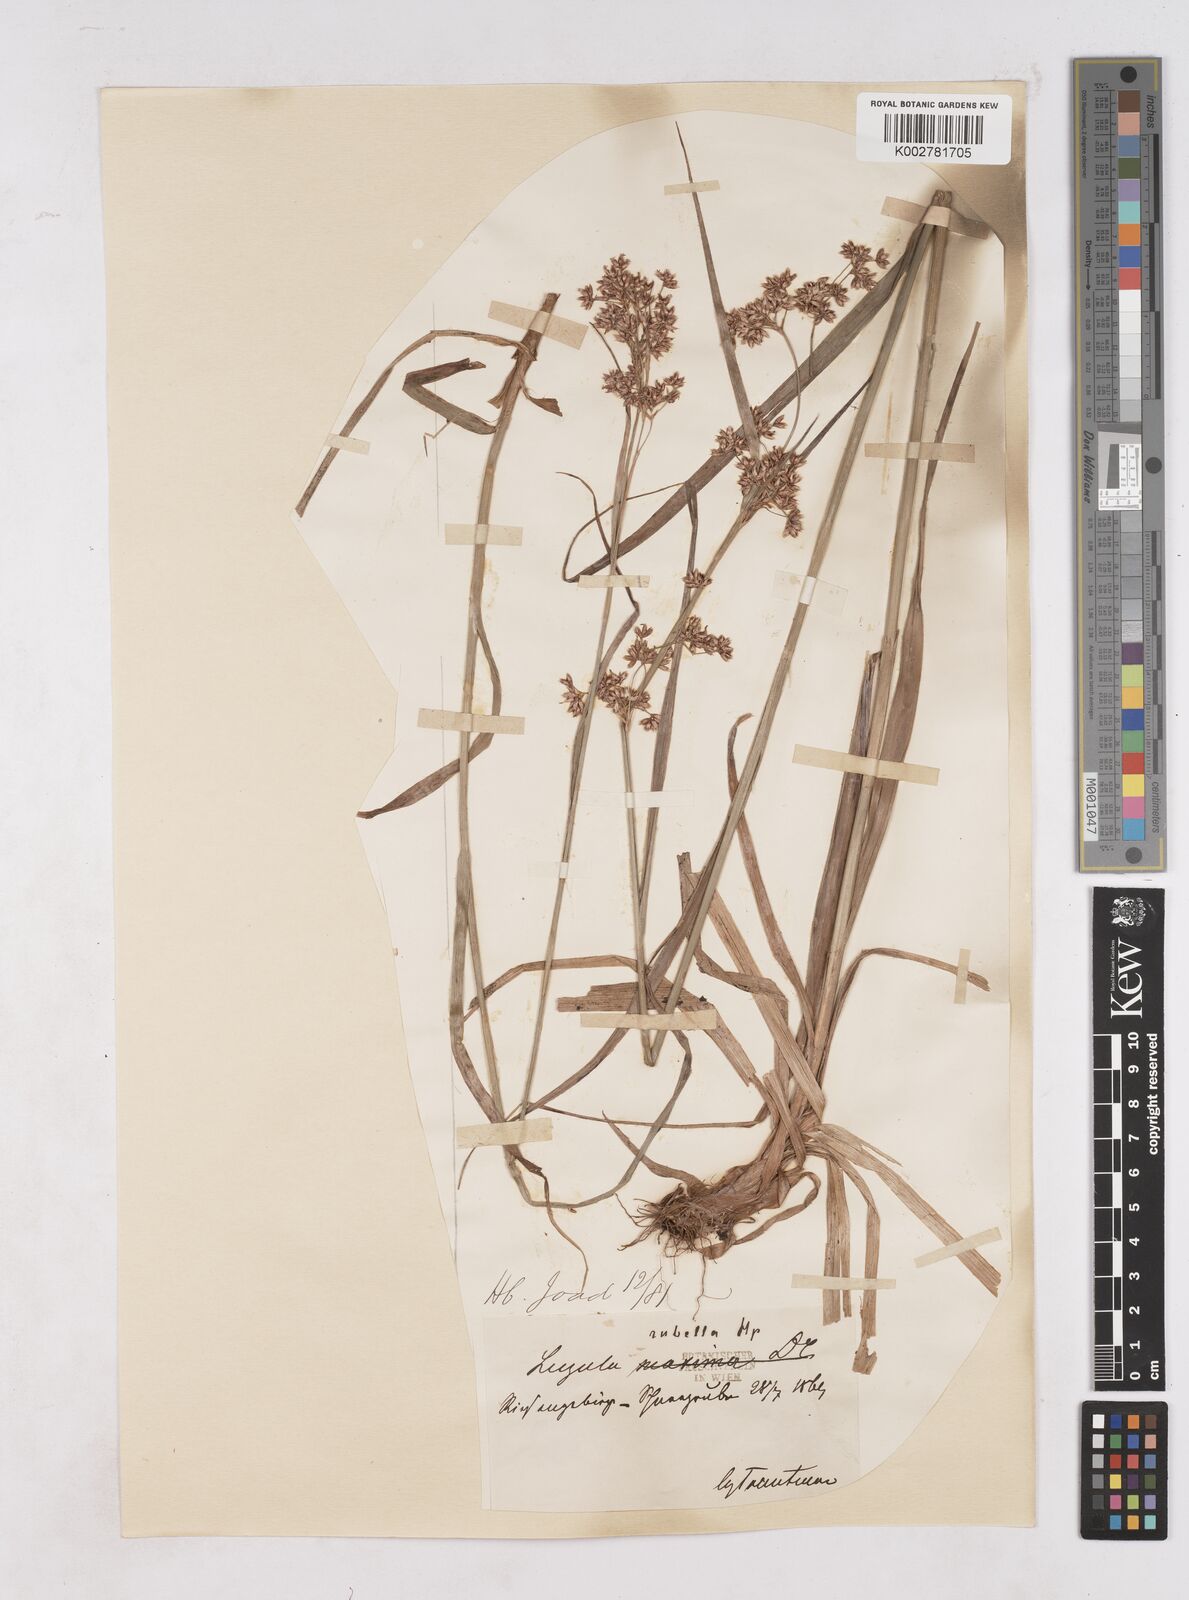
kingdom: Plantae
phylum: Tracheophyta
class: Liliopsida
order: Poales
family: Juncaceae
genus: Luzula
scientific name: Luzula luzuloides
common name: White wood-rush
